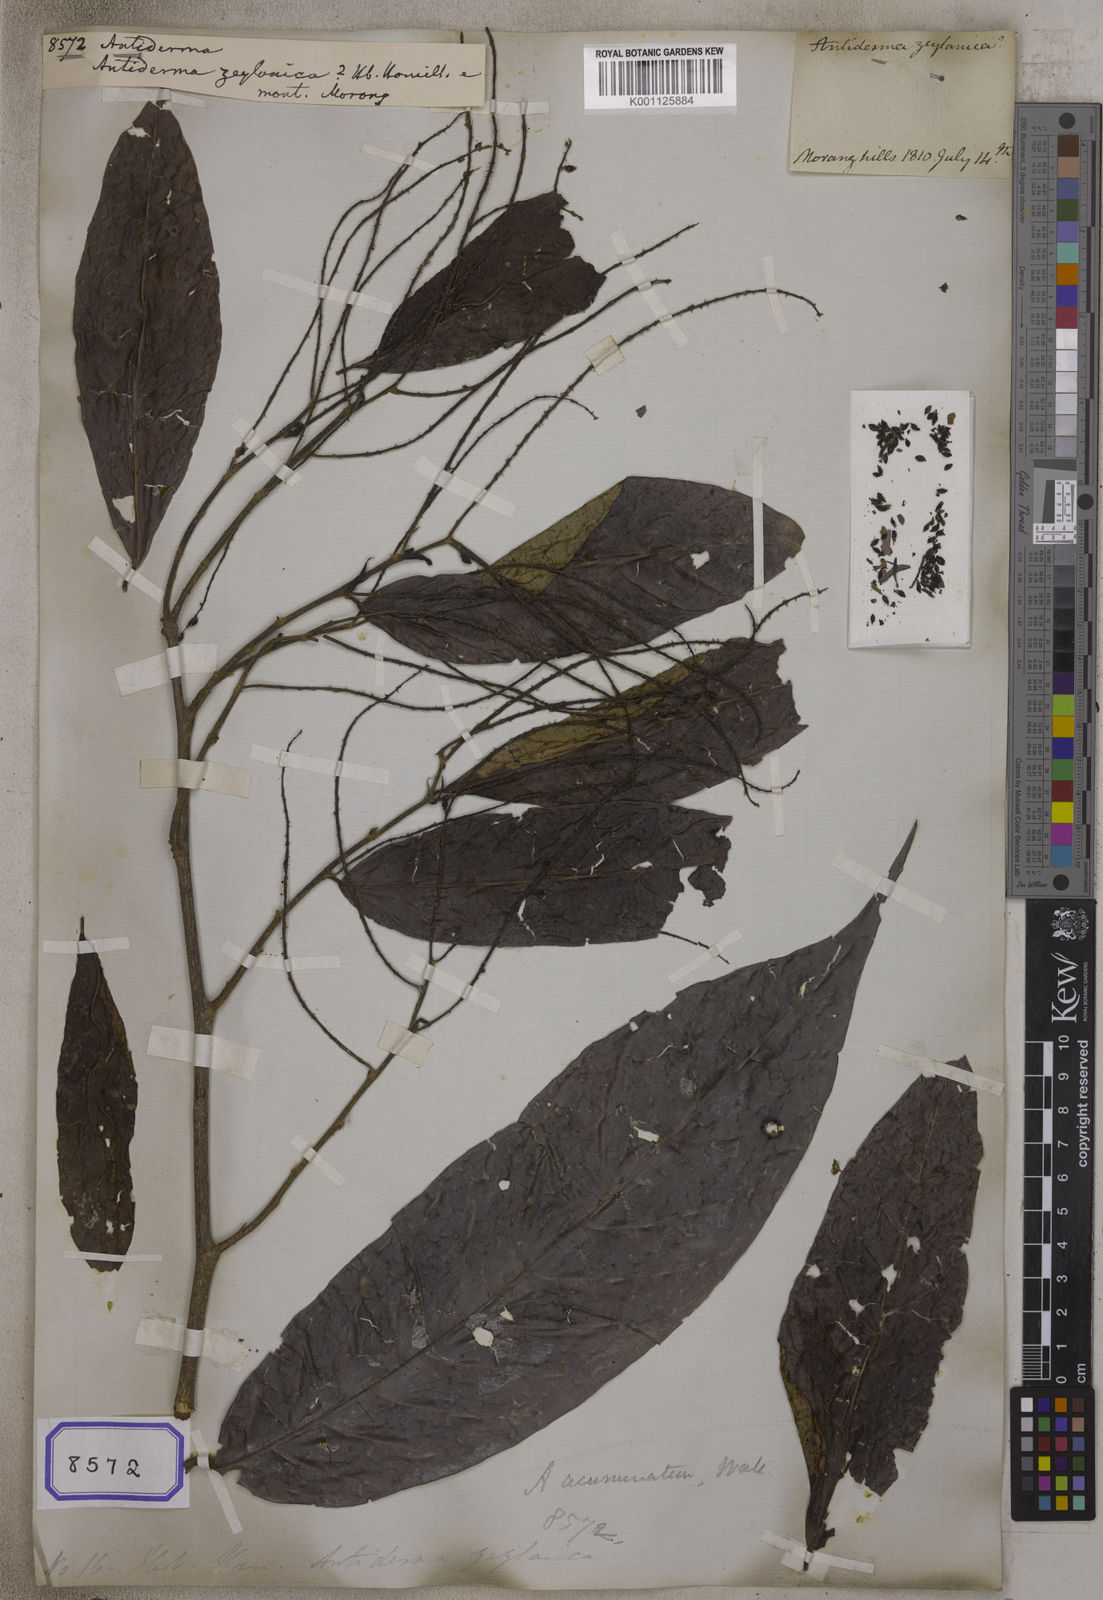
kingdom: Plantae
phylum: Tracheophyta
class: Magnoliopsida
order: Malpighiales
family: Phyllanthaceae
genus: Antidesma
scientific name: Antidesma
